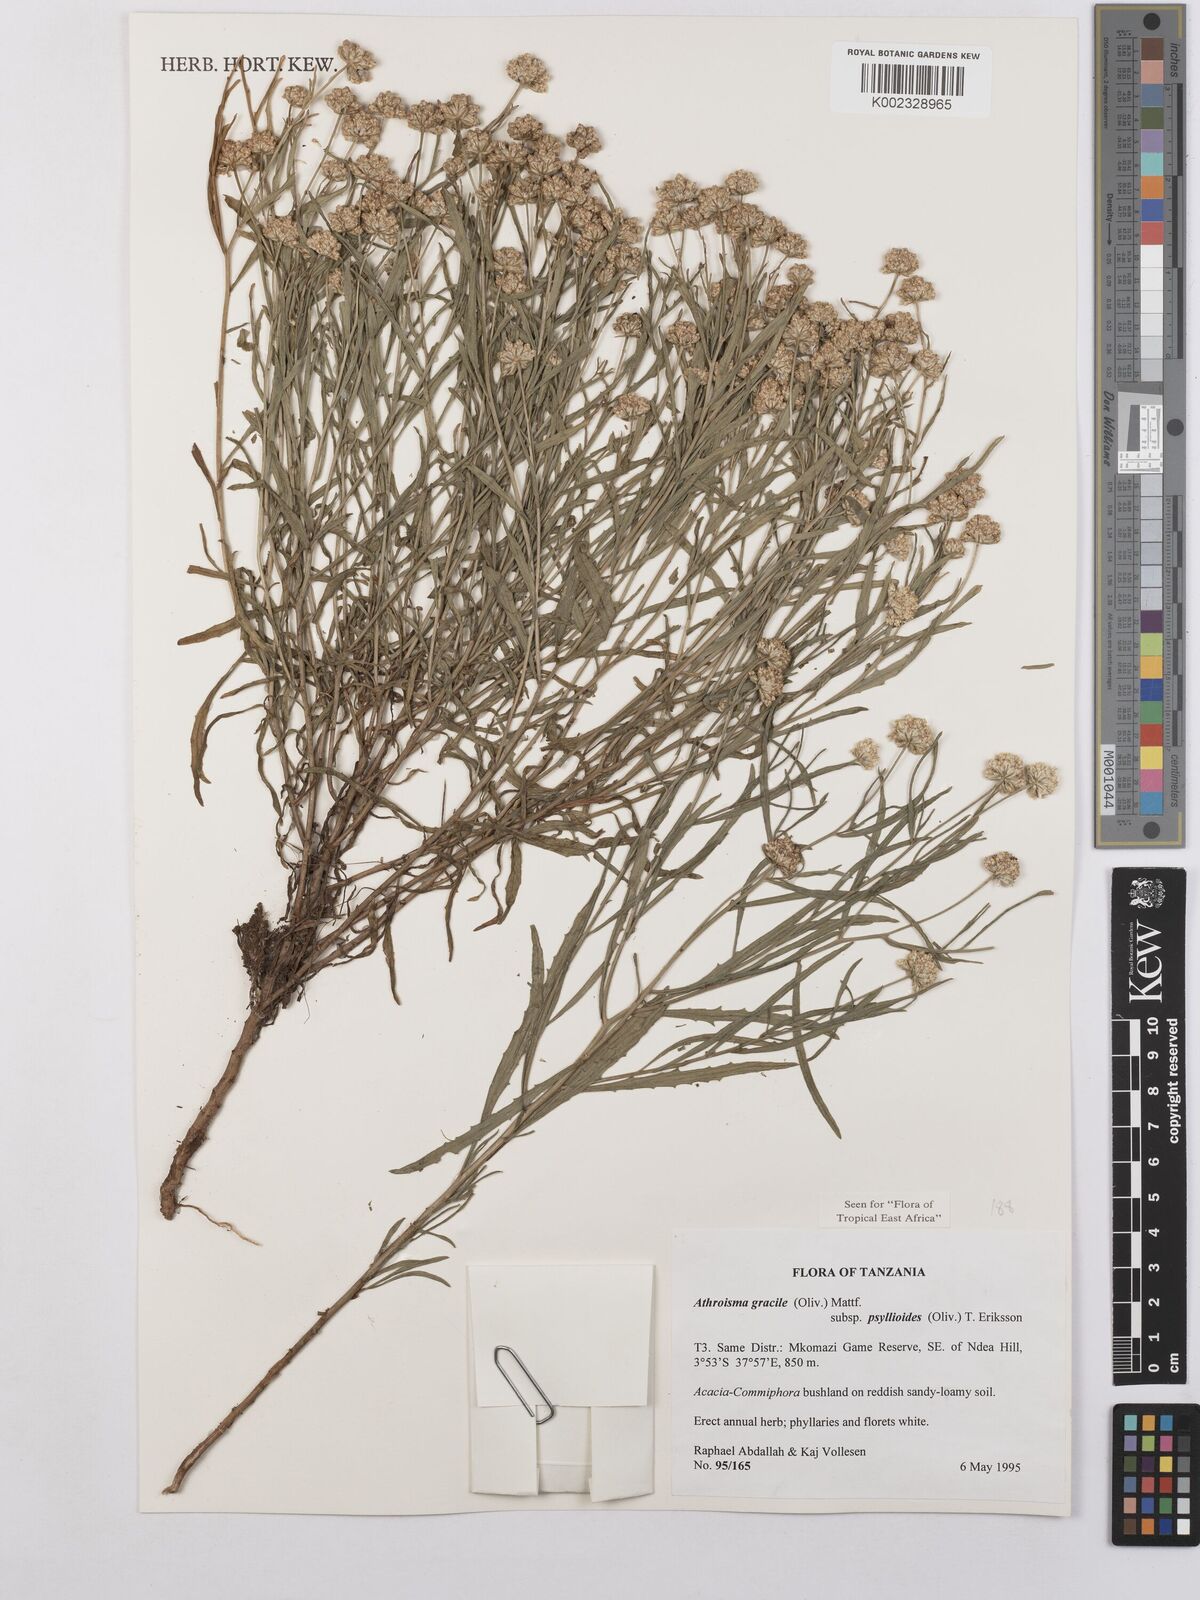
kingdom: Plantae
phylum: Tracheophyta
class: Magnoliopsida
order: Asterales
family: Asteraceae
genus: Athroisma
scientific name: Athroisma gracile
